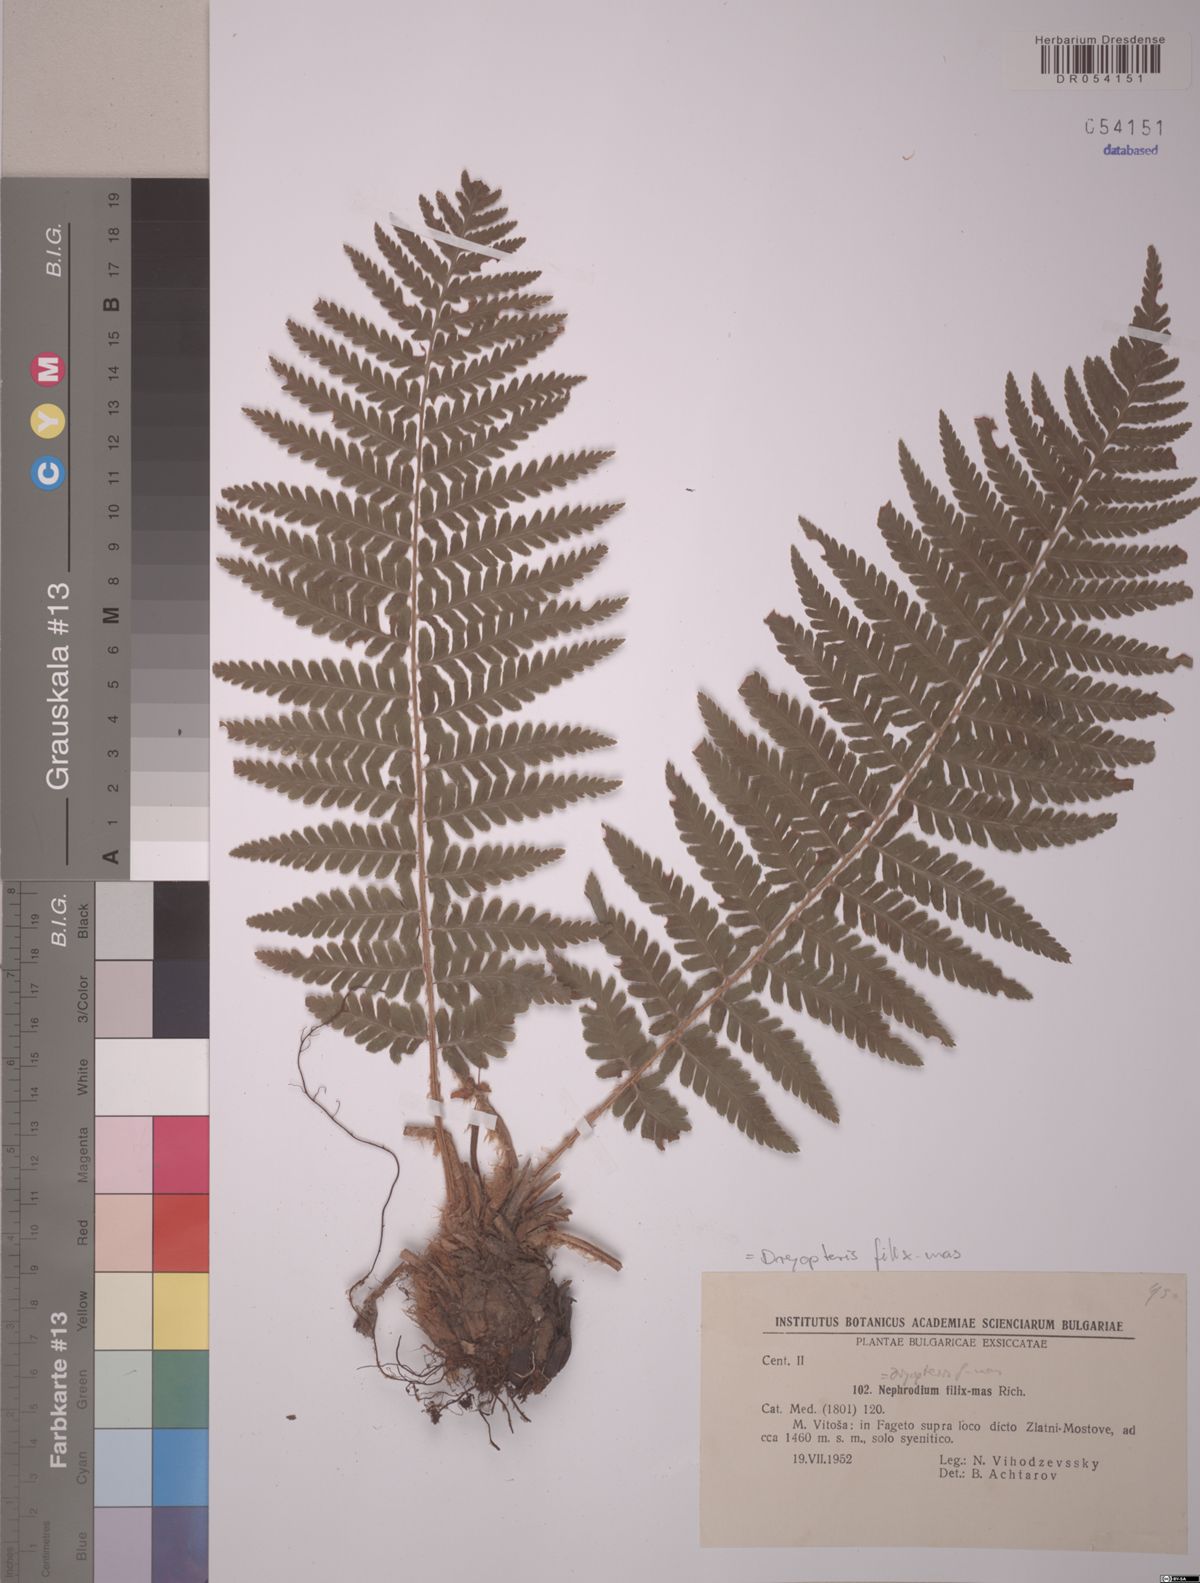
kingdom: Plantae
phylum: Tracheophyta
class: Polypodiopsida
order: Polypodiales
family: Dryopteridaceae
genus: Dryopteris
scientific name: Dryopteris filix-mas
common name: Male fern
